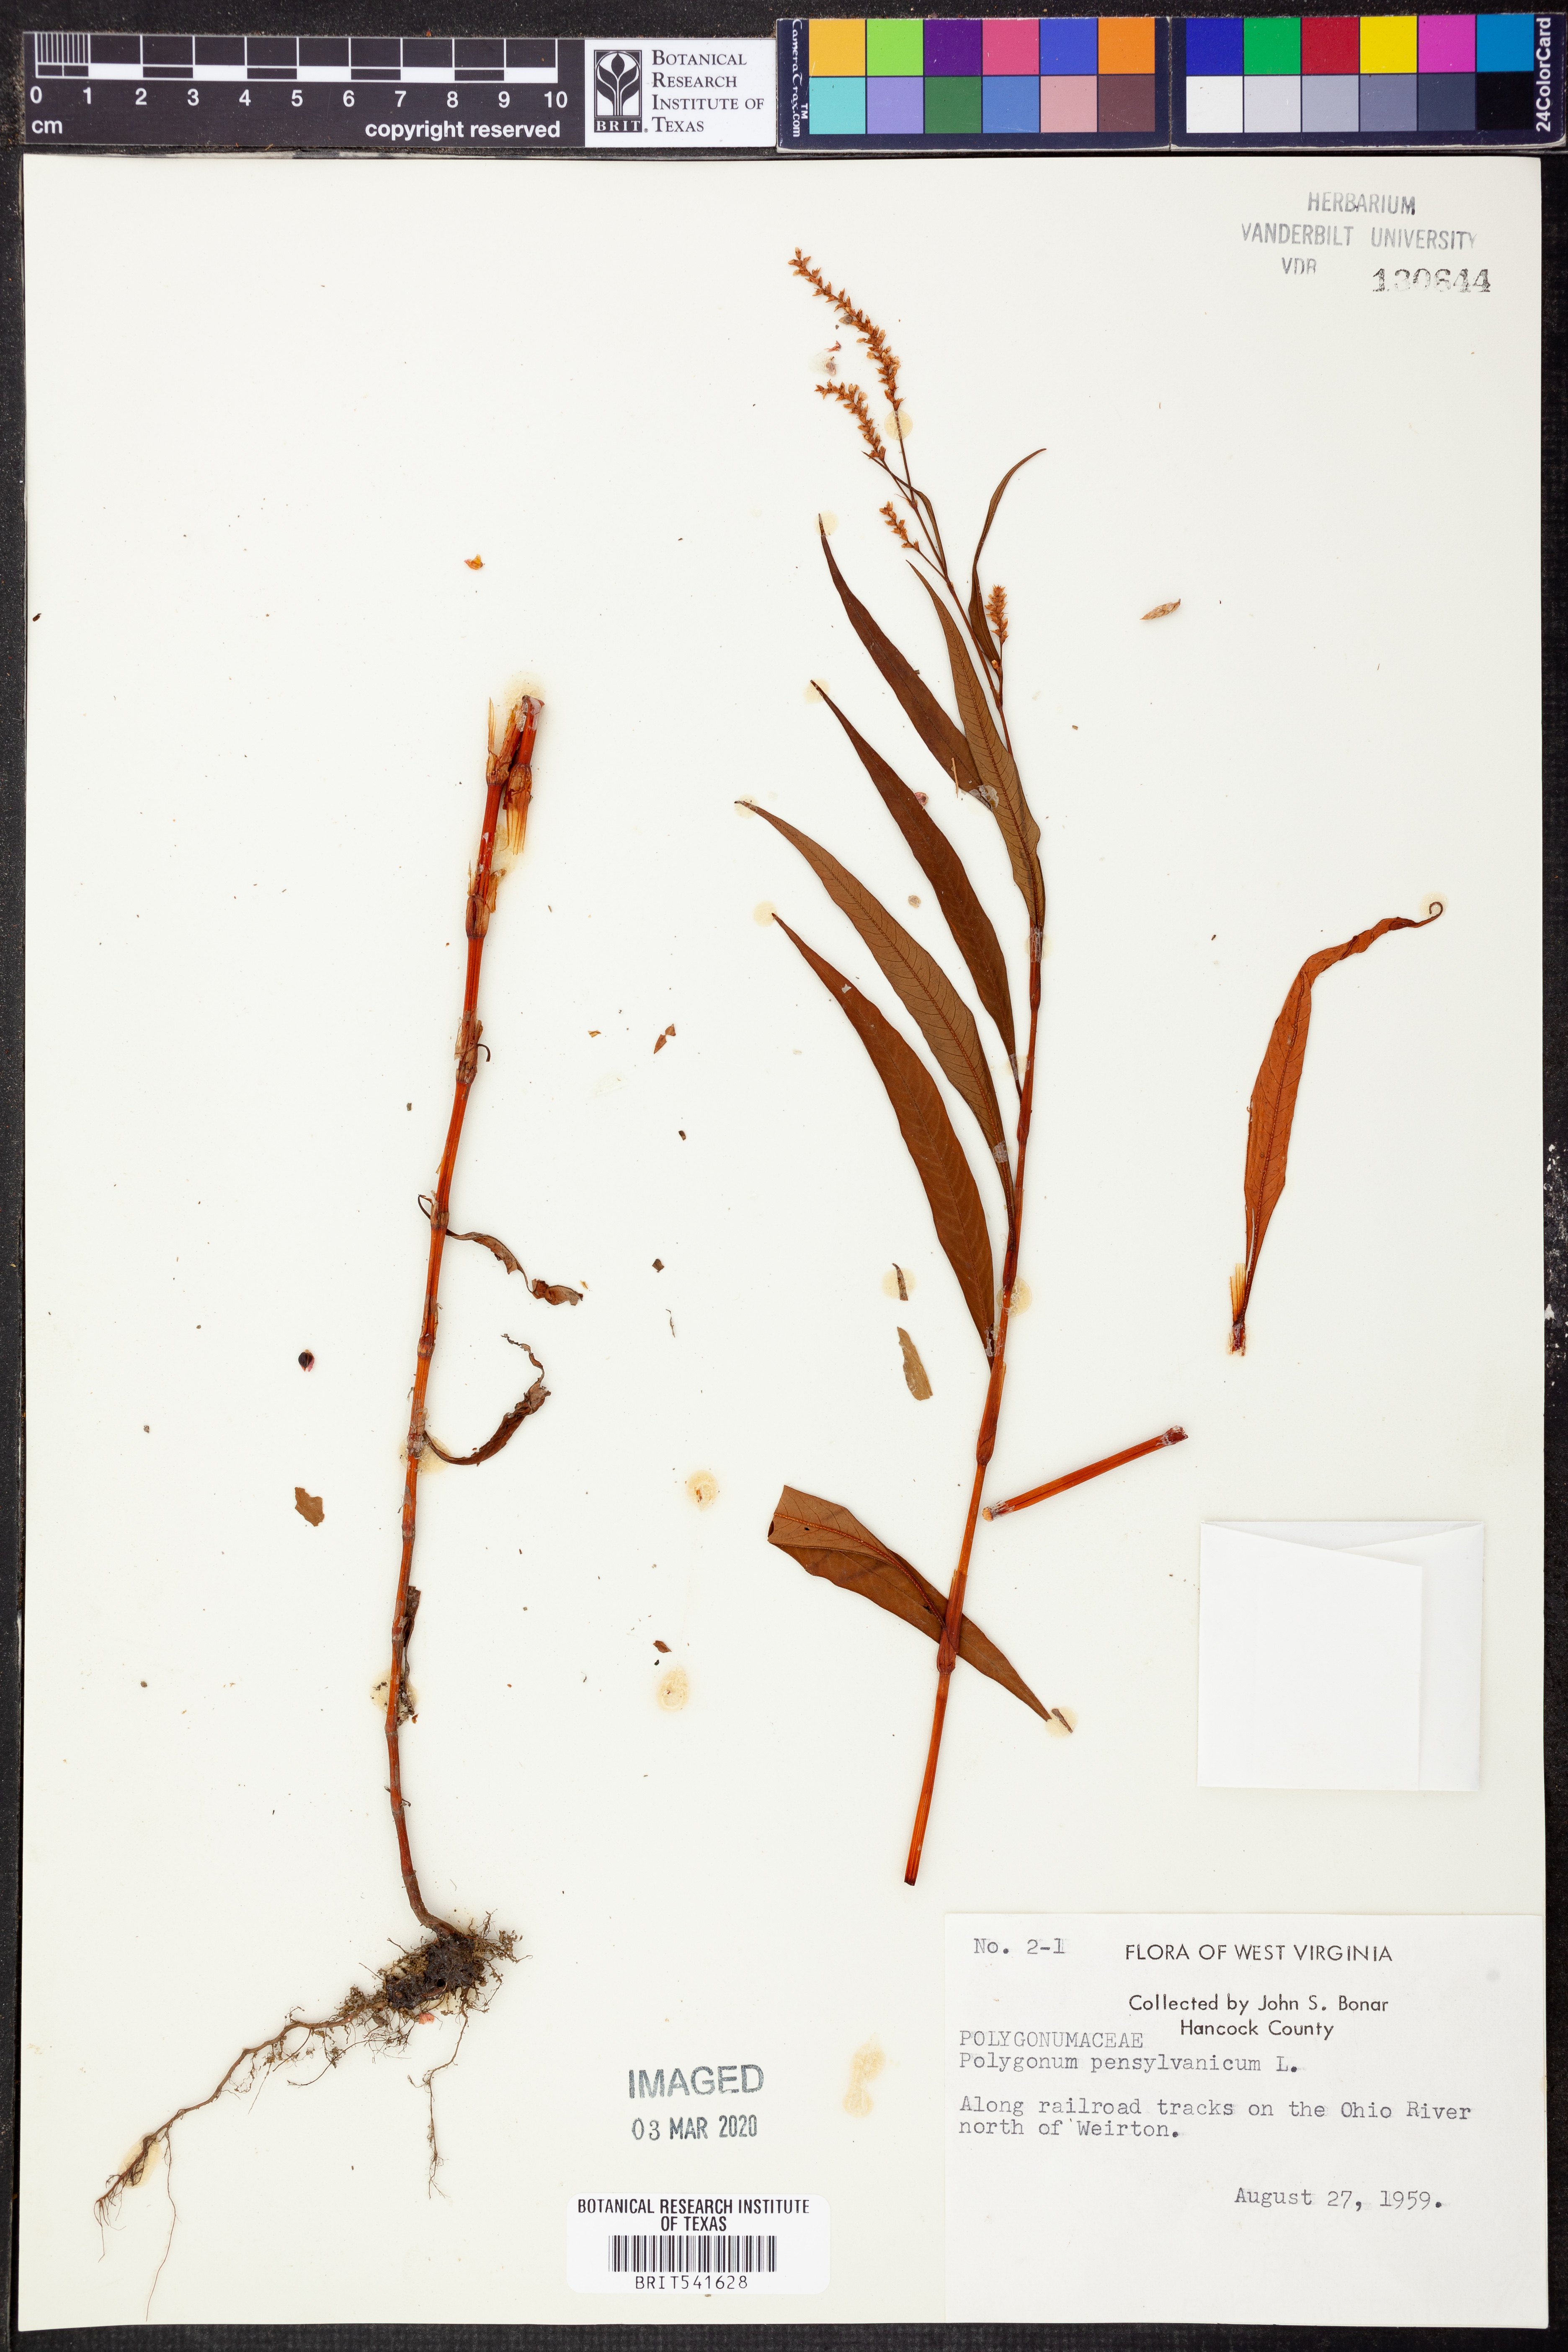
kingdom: Plantae
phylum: Tracheophyta
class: Magnoliopsida
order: Caryophyllales
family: Polygonaceae
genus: Persicaria
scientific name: Persicaria pensylvanica
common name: Pinkweed
